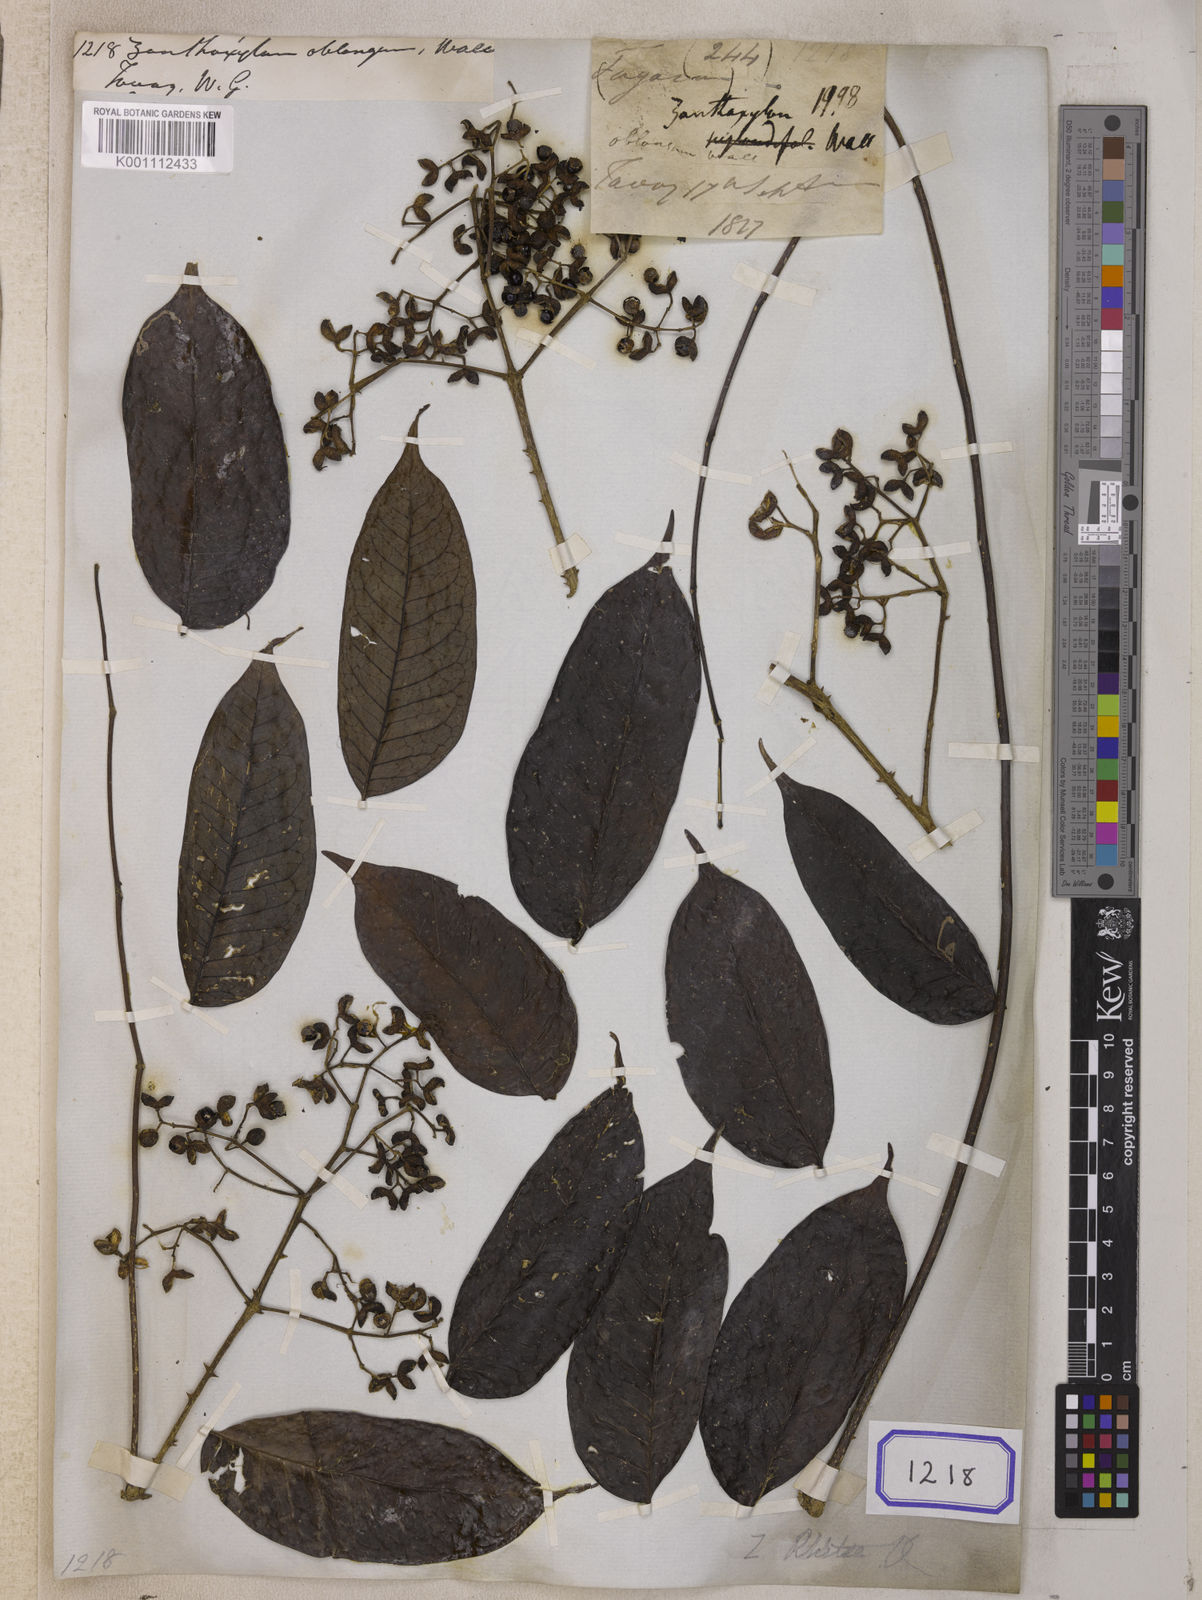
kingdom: Plantae
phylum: Tracheophyta
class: Magnoliopsida
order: Sapindales
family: Rutaceae
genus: Zanthoxylum
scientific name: Zanthoxylum rhetsa
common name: Indian ivy-rue
